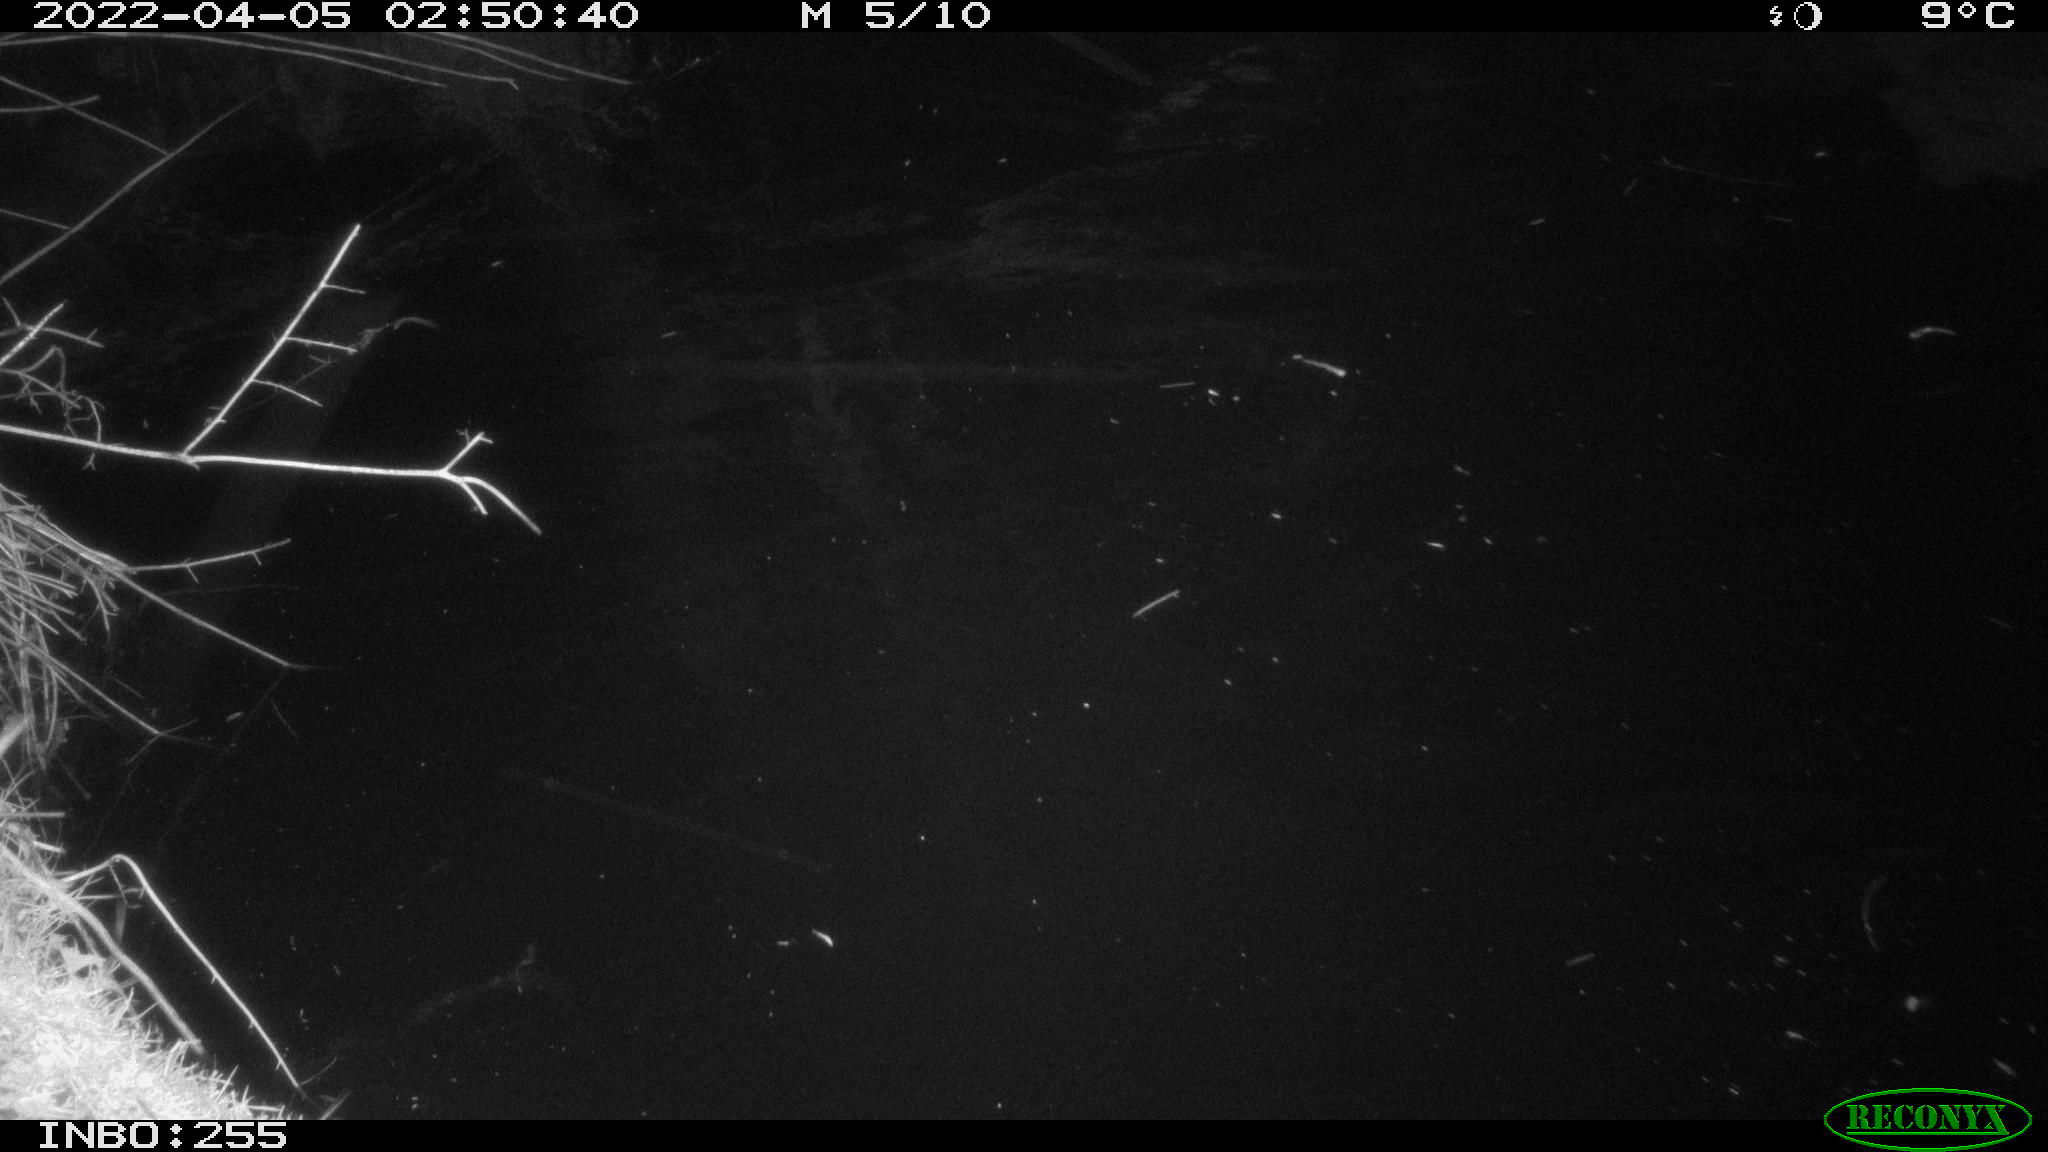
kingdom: Animalia
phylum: Chordata
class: Aves
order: Anseriformes
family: Anatidae
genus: Anas
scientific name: Anas platyrhynchos
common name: Mallard
